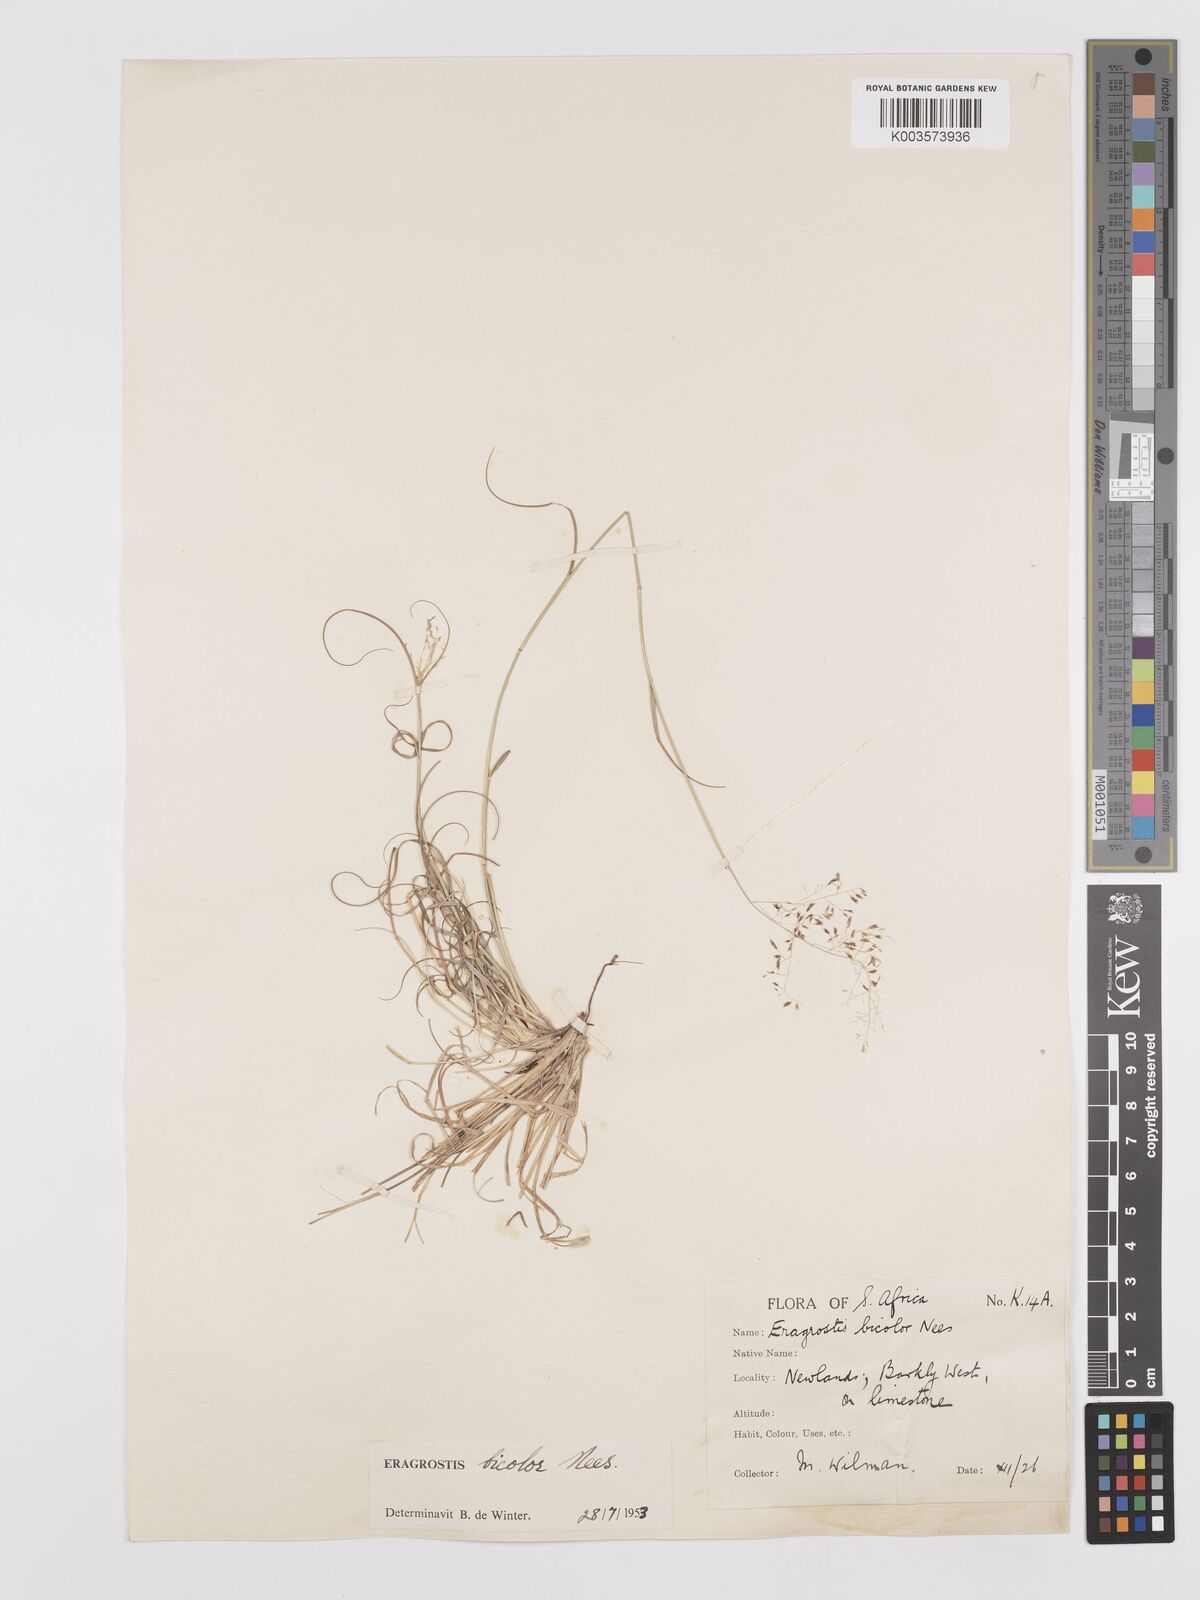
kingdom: Plantae
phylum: Tracheophyta
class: Liliopsida
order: Poales
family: Poaceae
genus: Eragrostis
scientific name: Eragrostis
